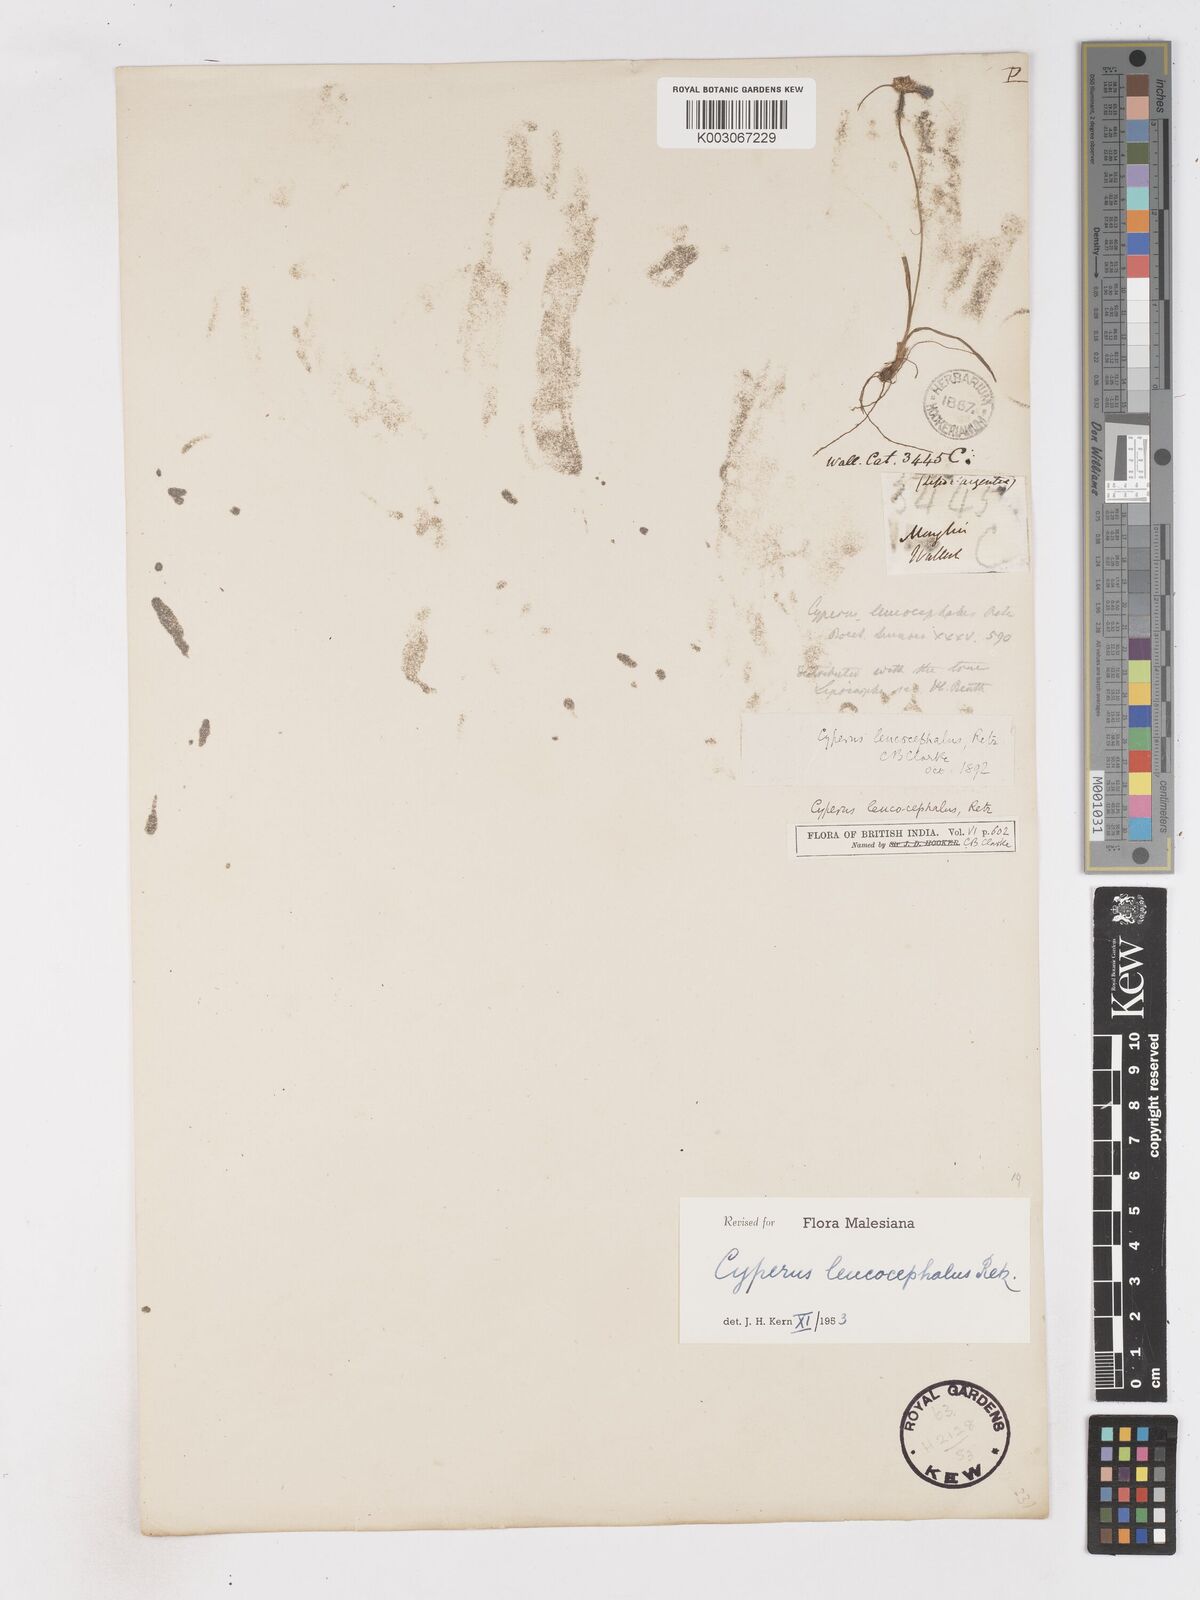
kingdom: Plantae
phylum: Tracheophyta
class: Liliopsida
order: Poales
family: Cyperaceae
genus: Cyperus
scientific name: Cyperus leucocephalus
